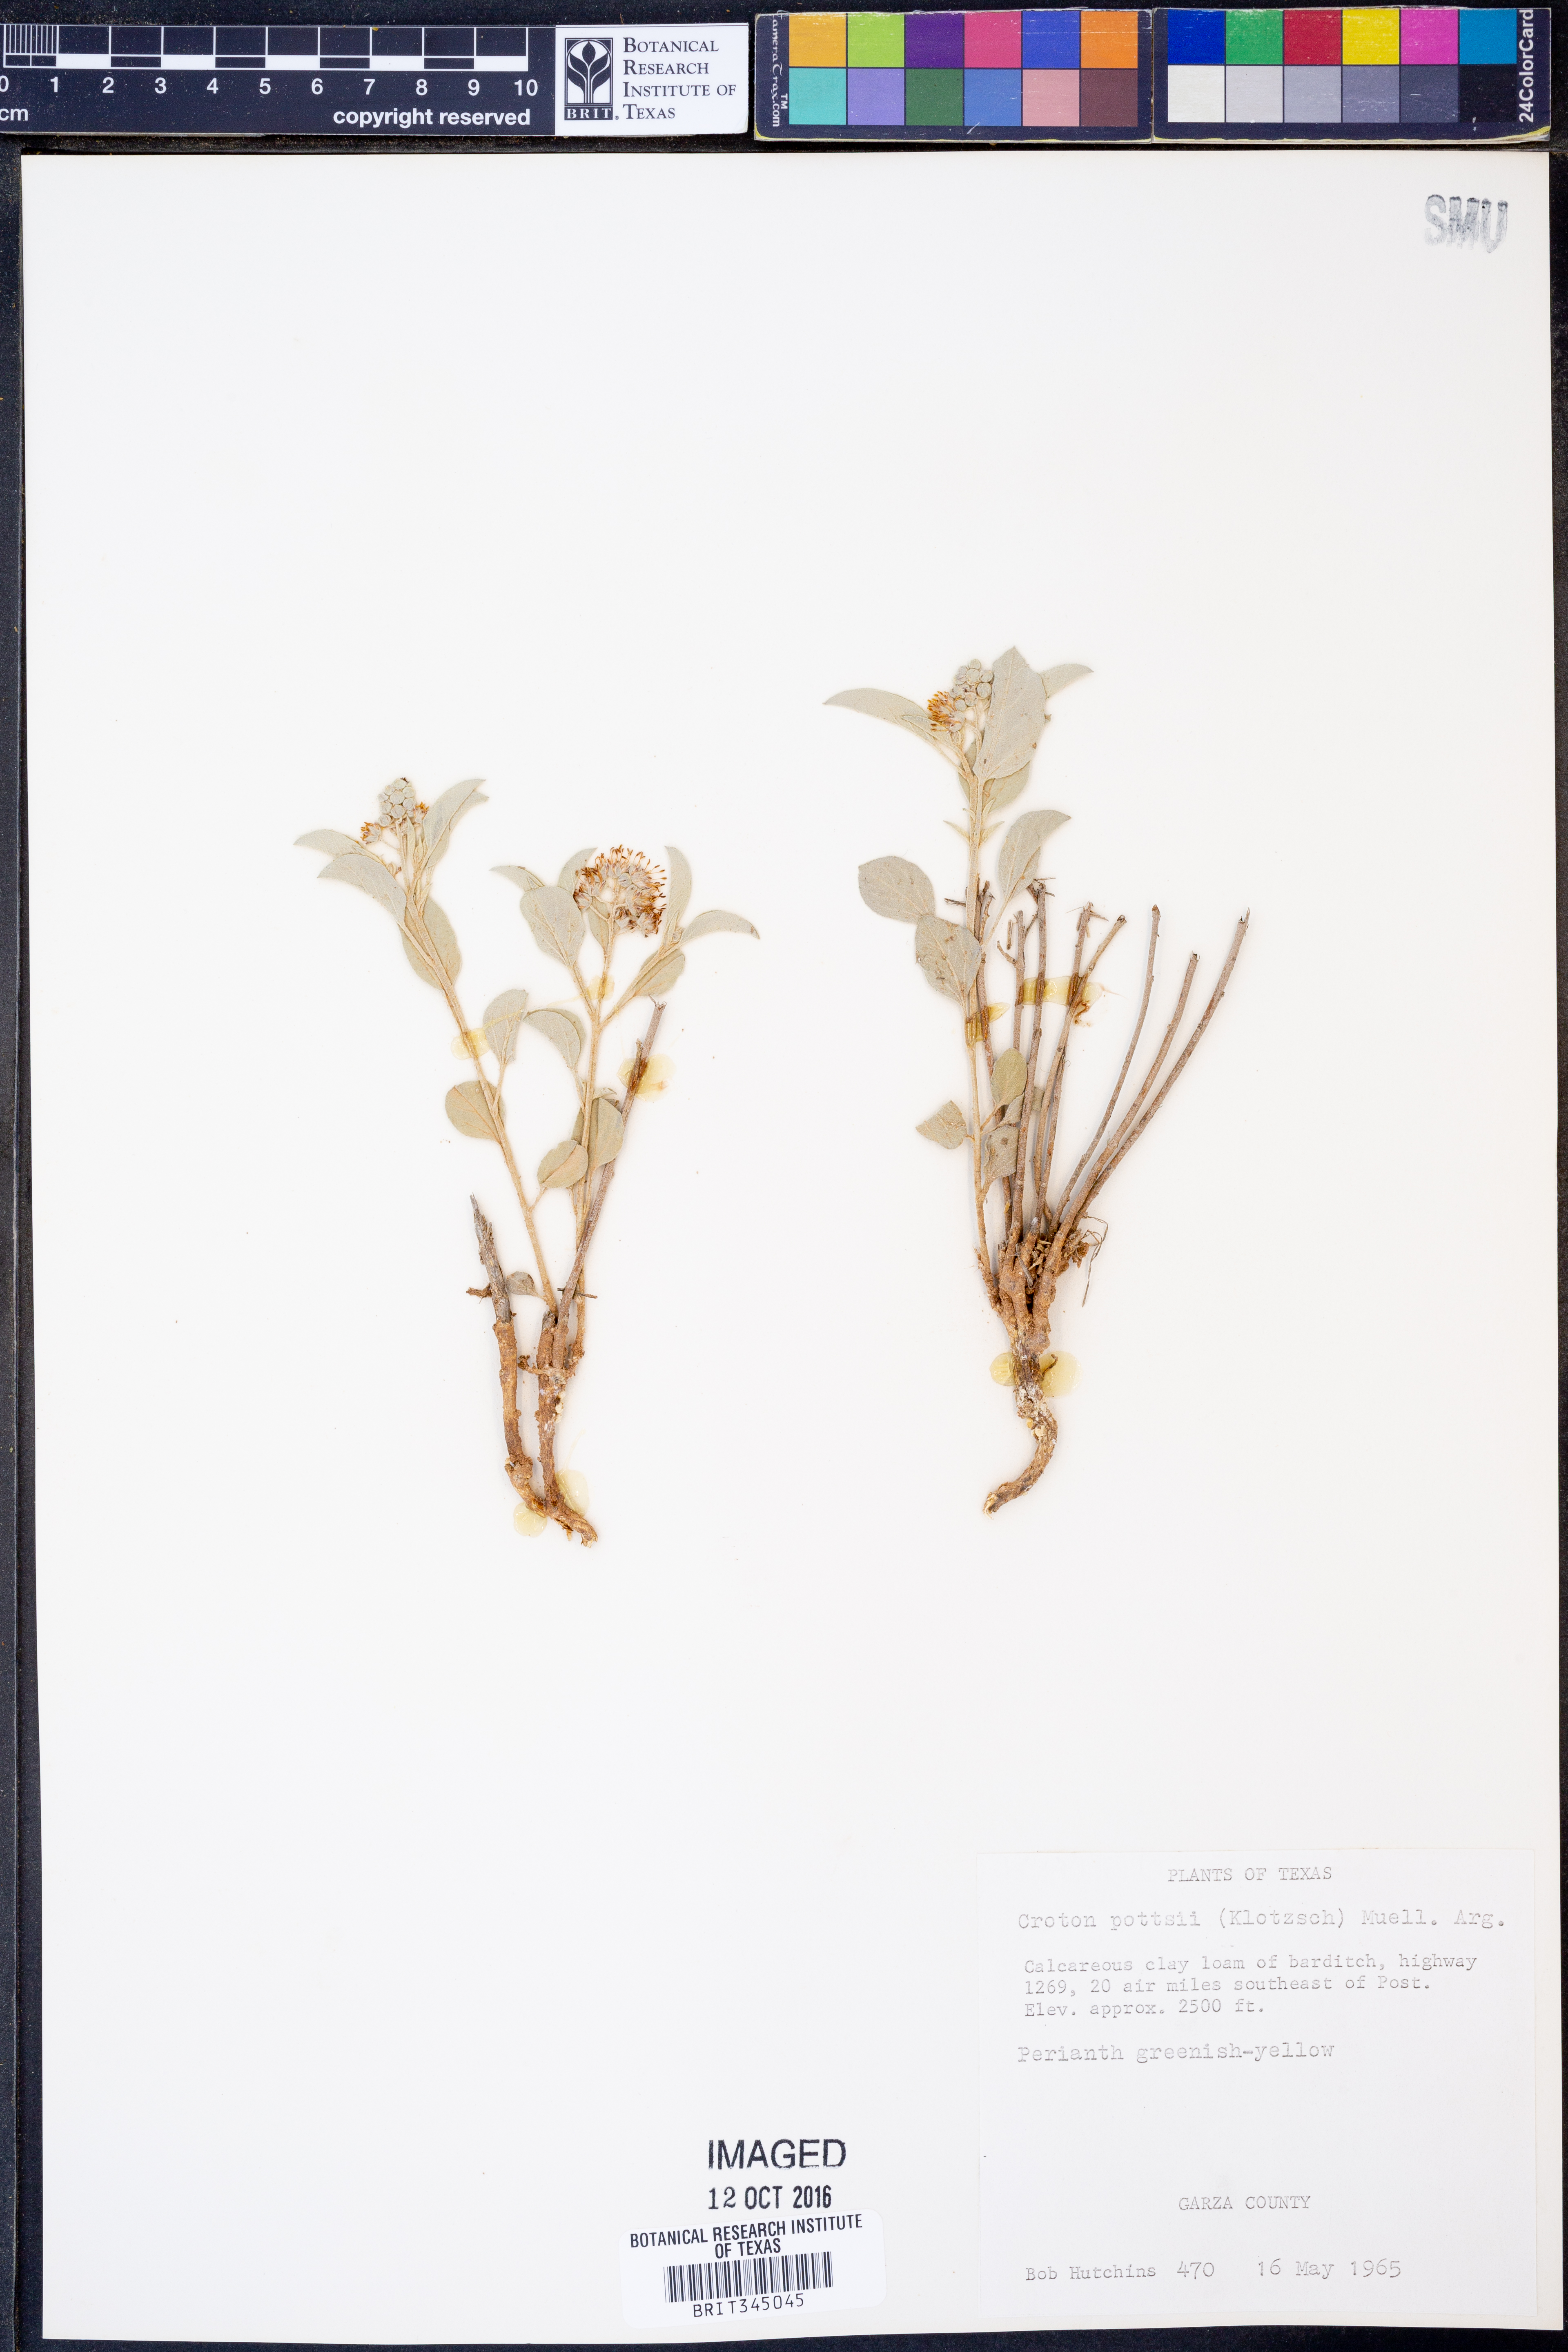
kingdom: Plantae
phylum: Tracheophyta
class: Magnoliopsida
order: Malpighiales
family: Euphorbiaceae
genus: Croton
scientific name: Croton pottsii
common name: Leatherweed
